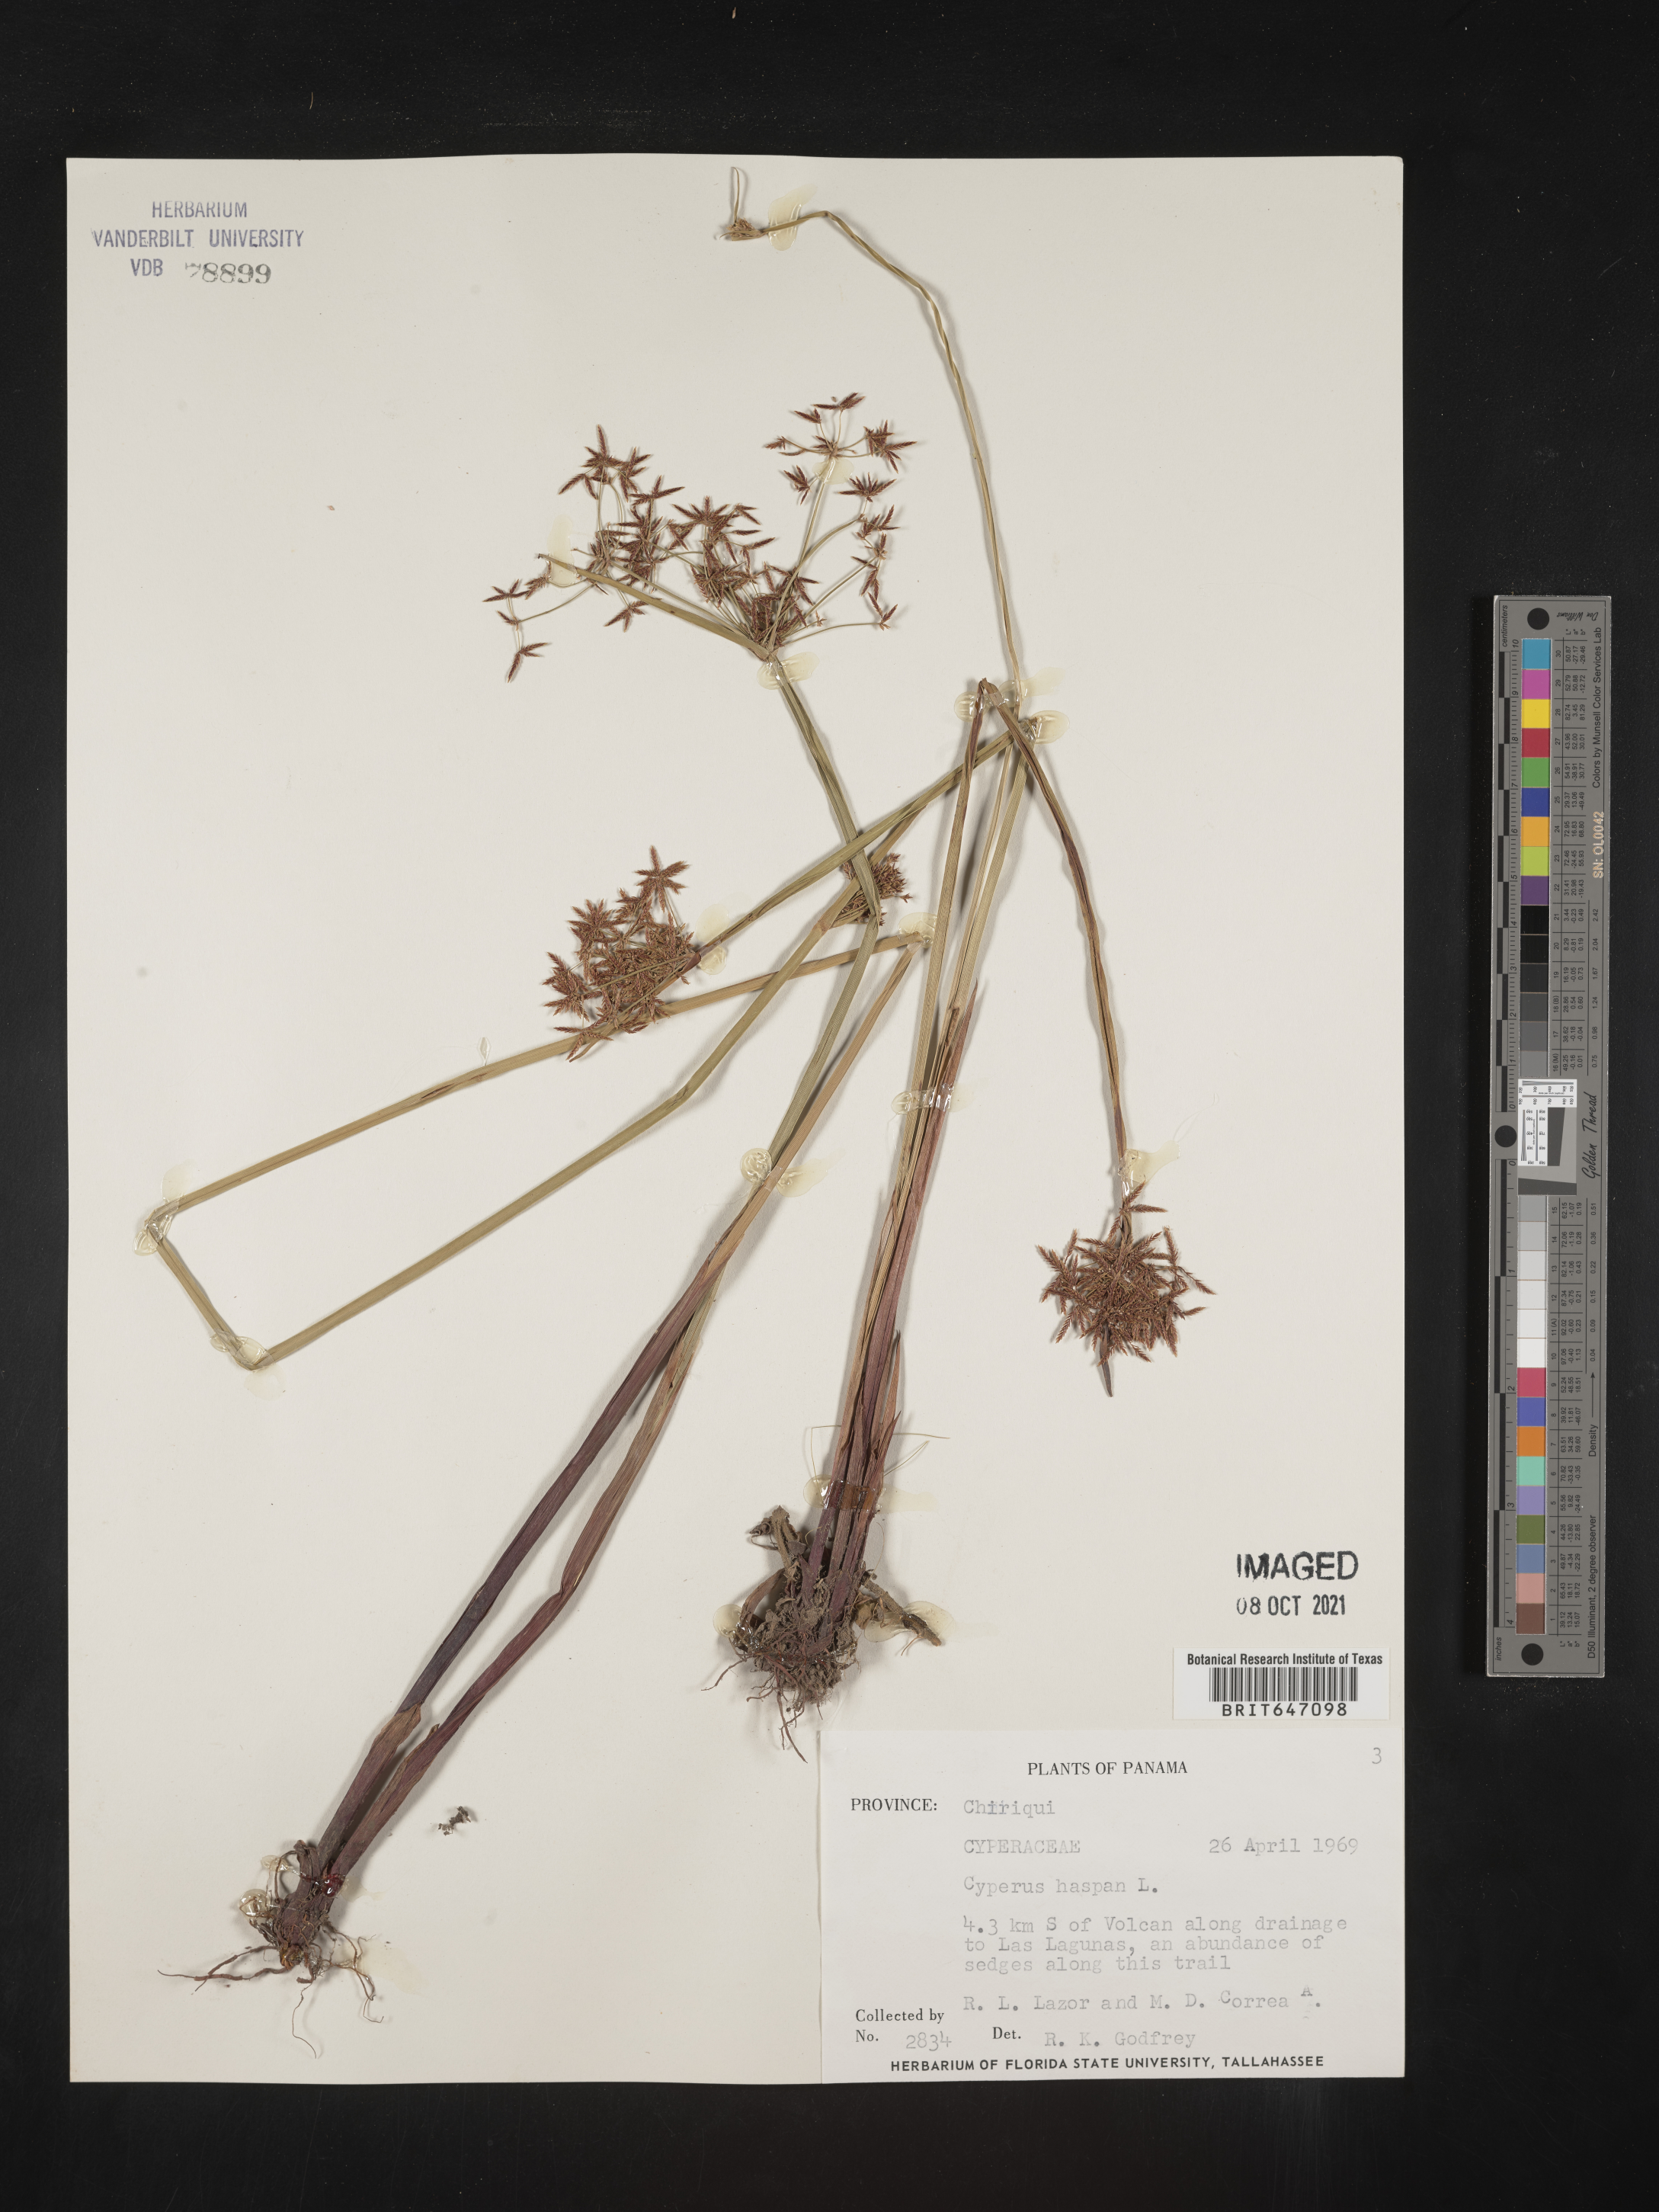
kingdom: Plantae
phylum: Tracheophyta
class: Liliopsida
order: Poales
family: Cyperaceae
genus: Cyperus
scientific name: Cyperus haspan
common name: Haspan flatsedge
